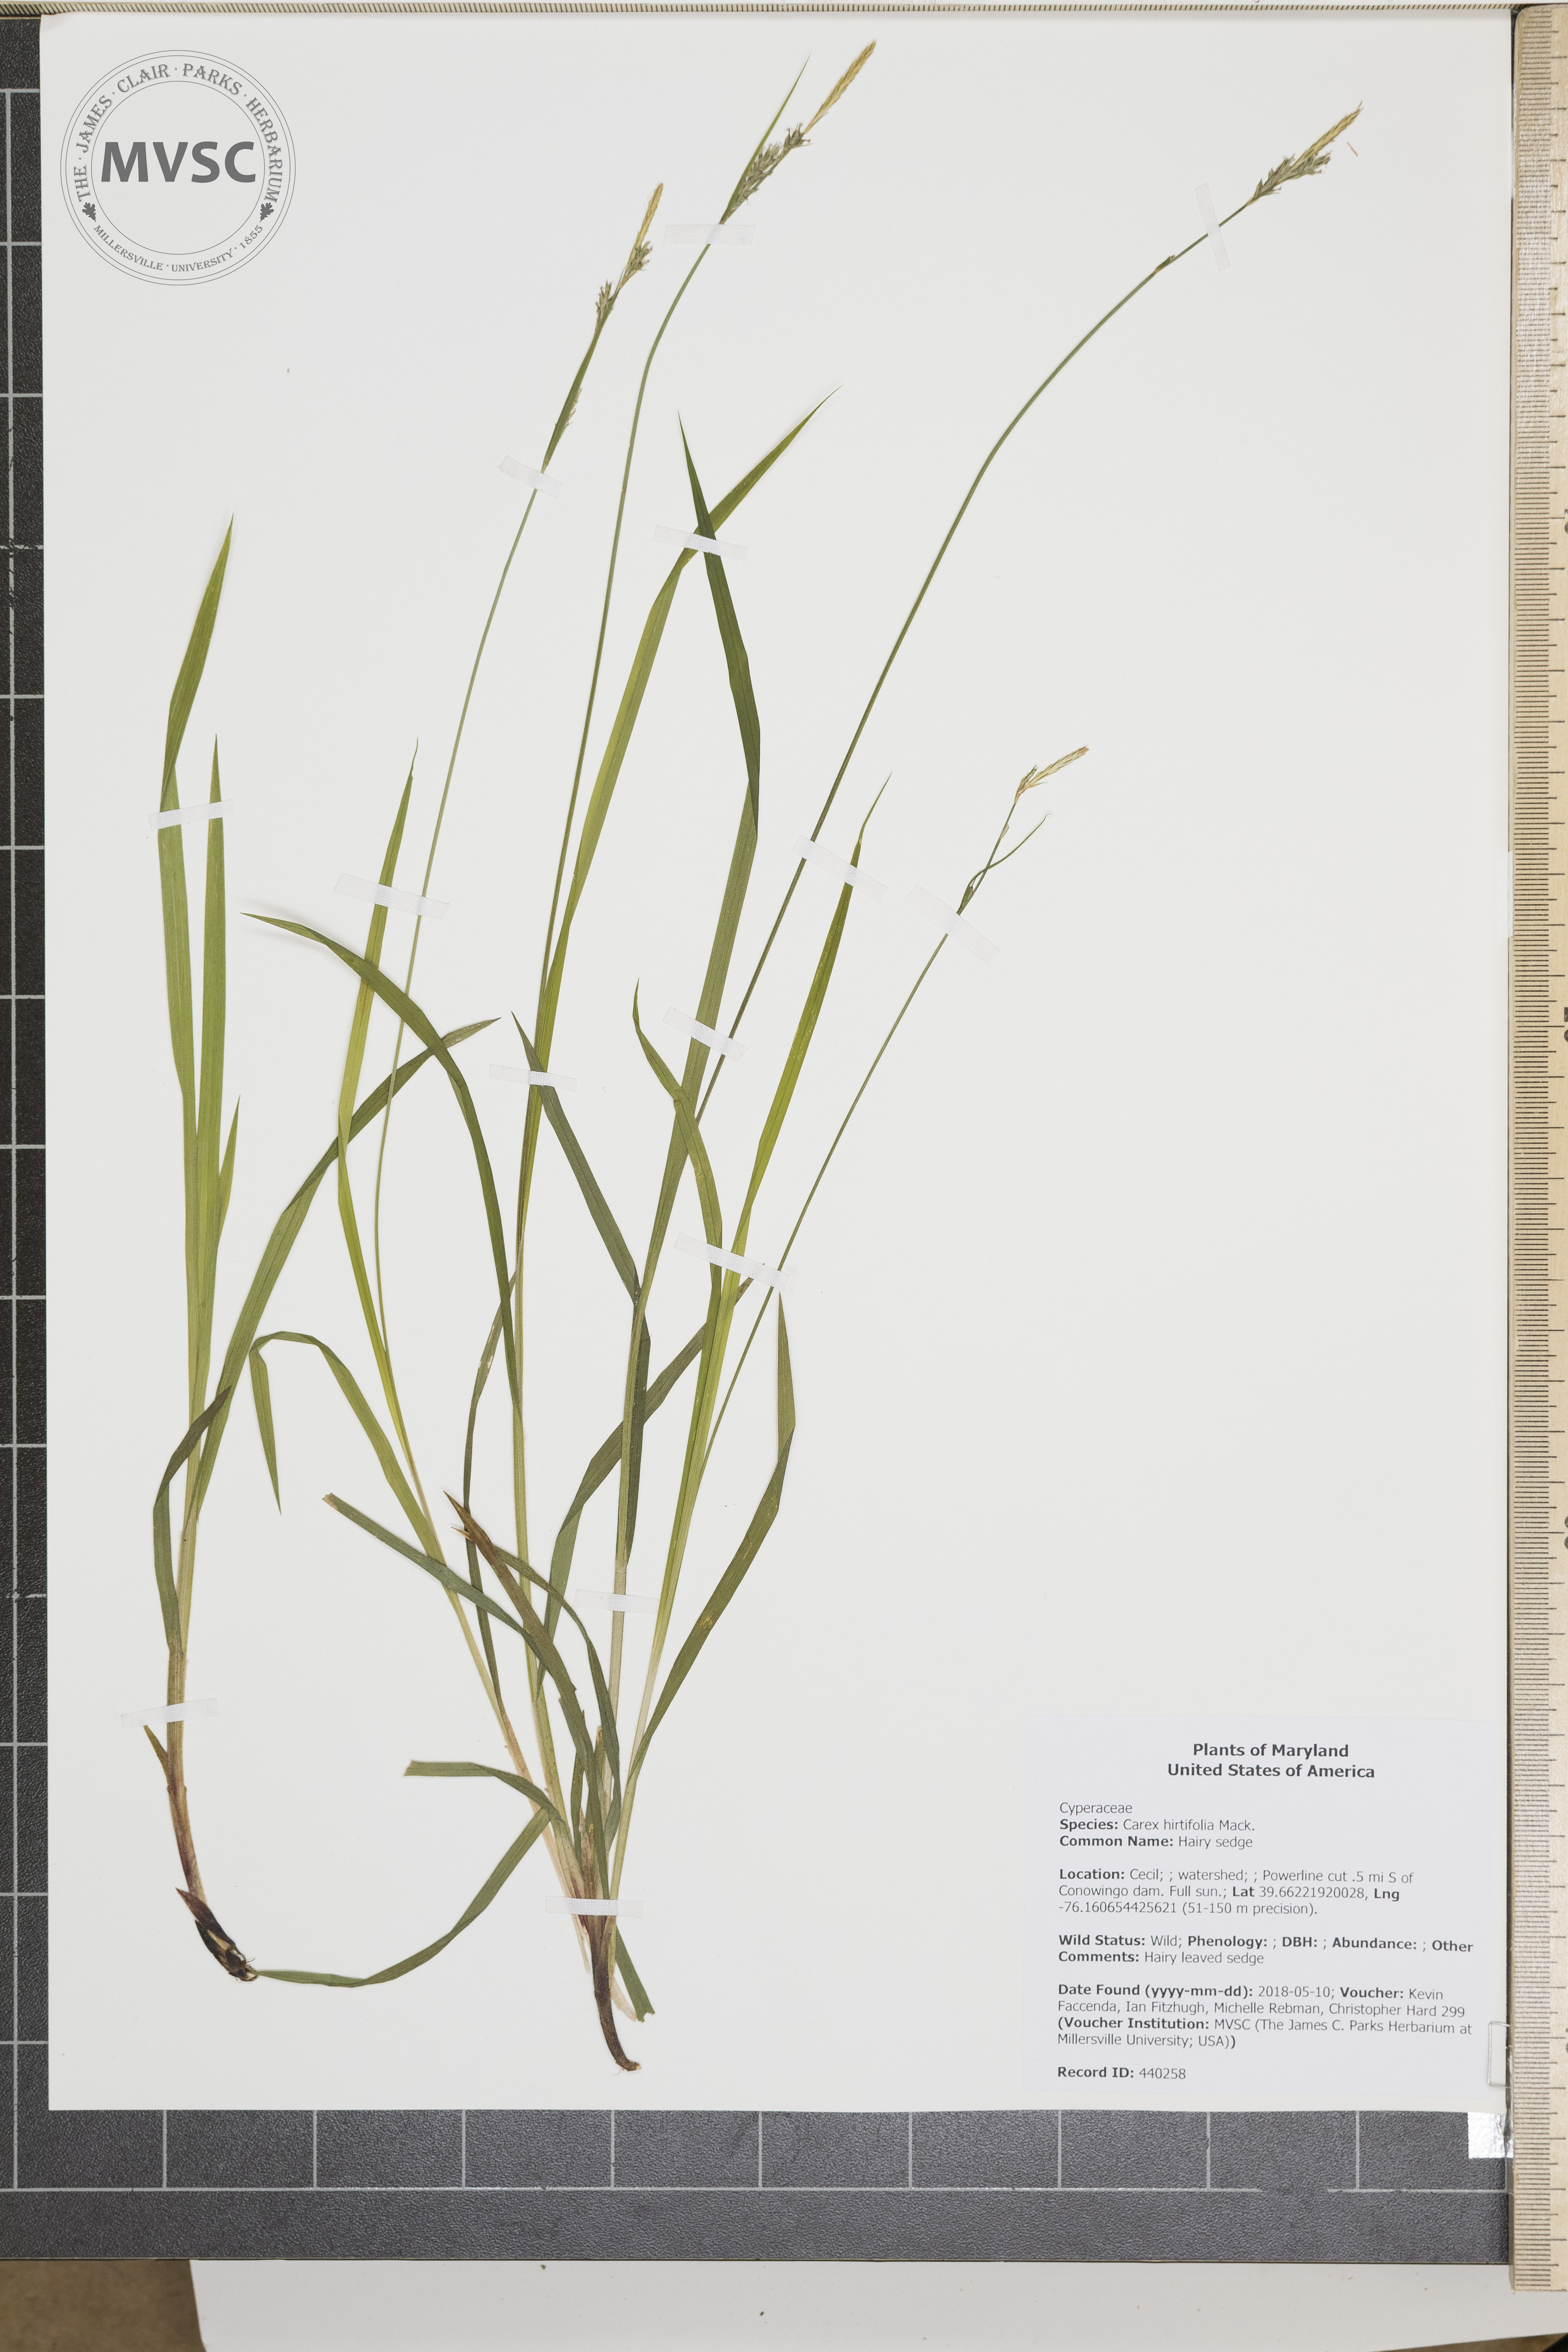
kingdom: Plantae
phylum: Tracheophyta
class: Liliopsida
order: Poales
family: Cyperaceae
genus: Carex
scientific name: Carex hirtifolia
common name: Hairy sedge
